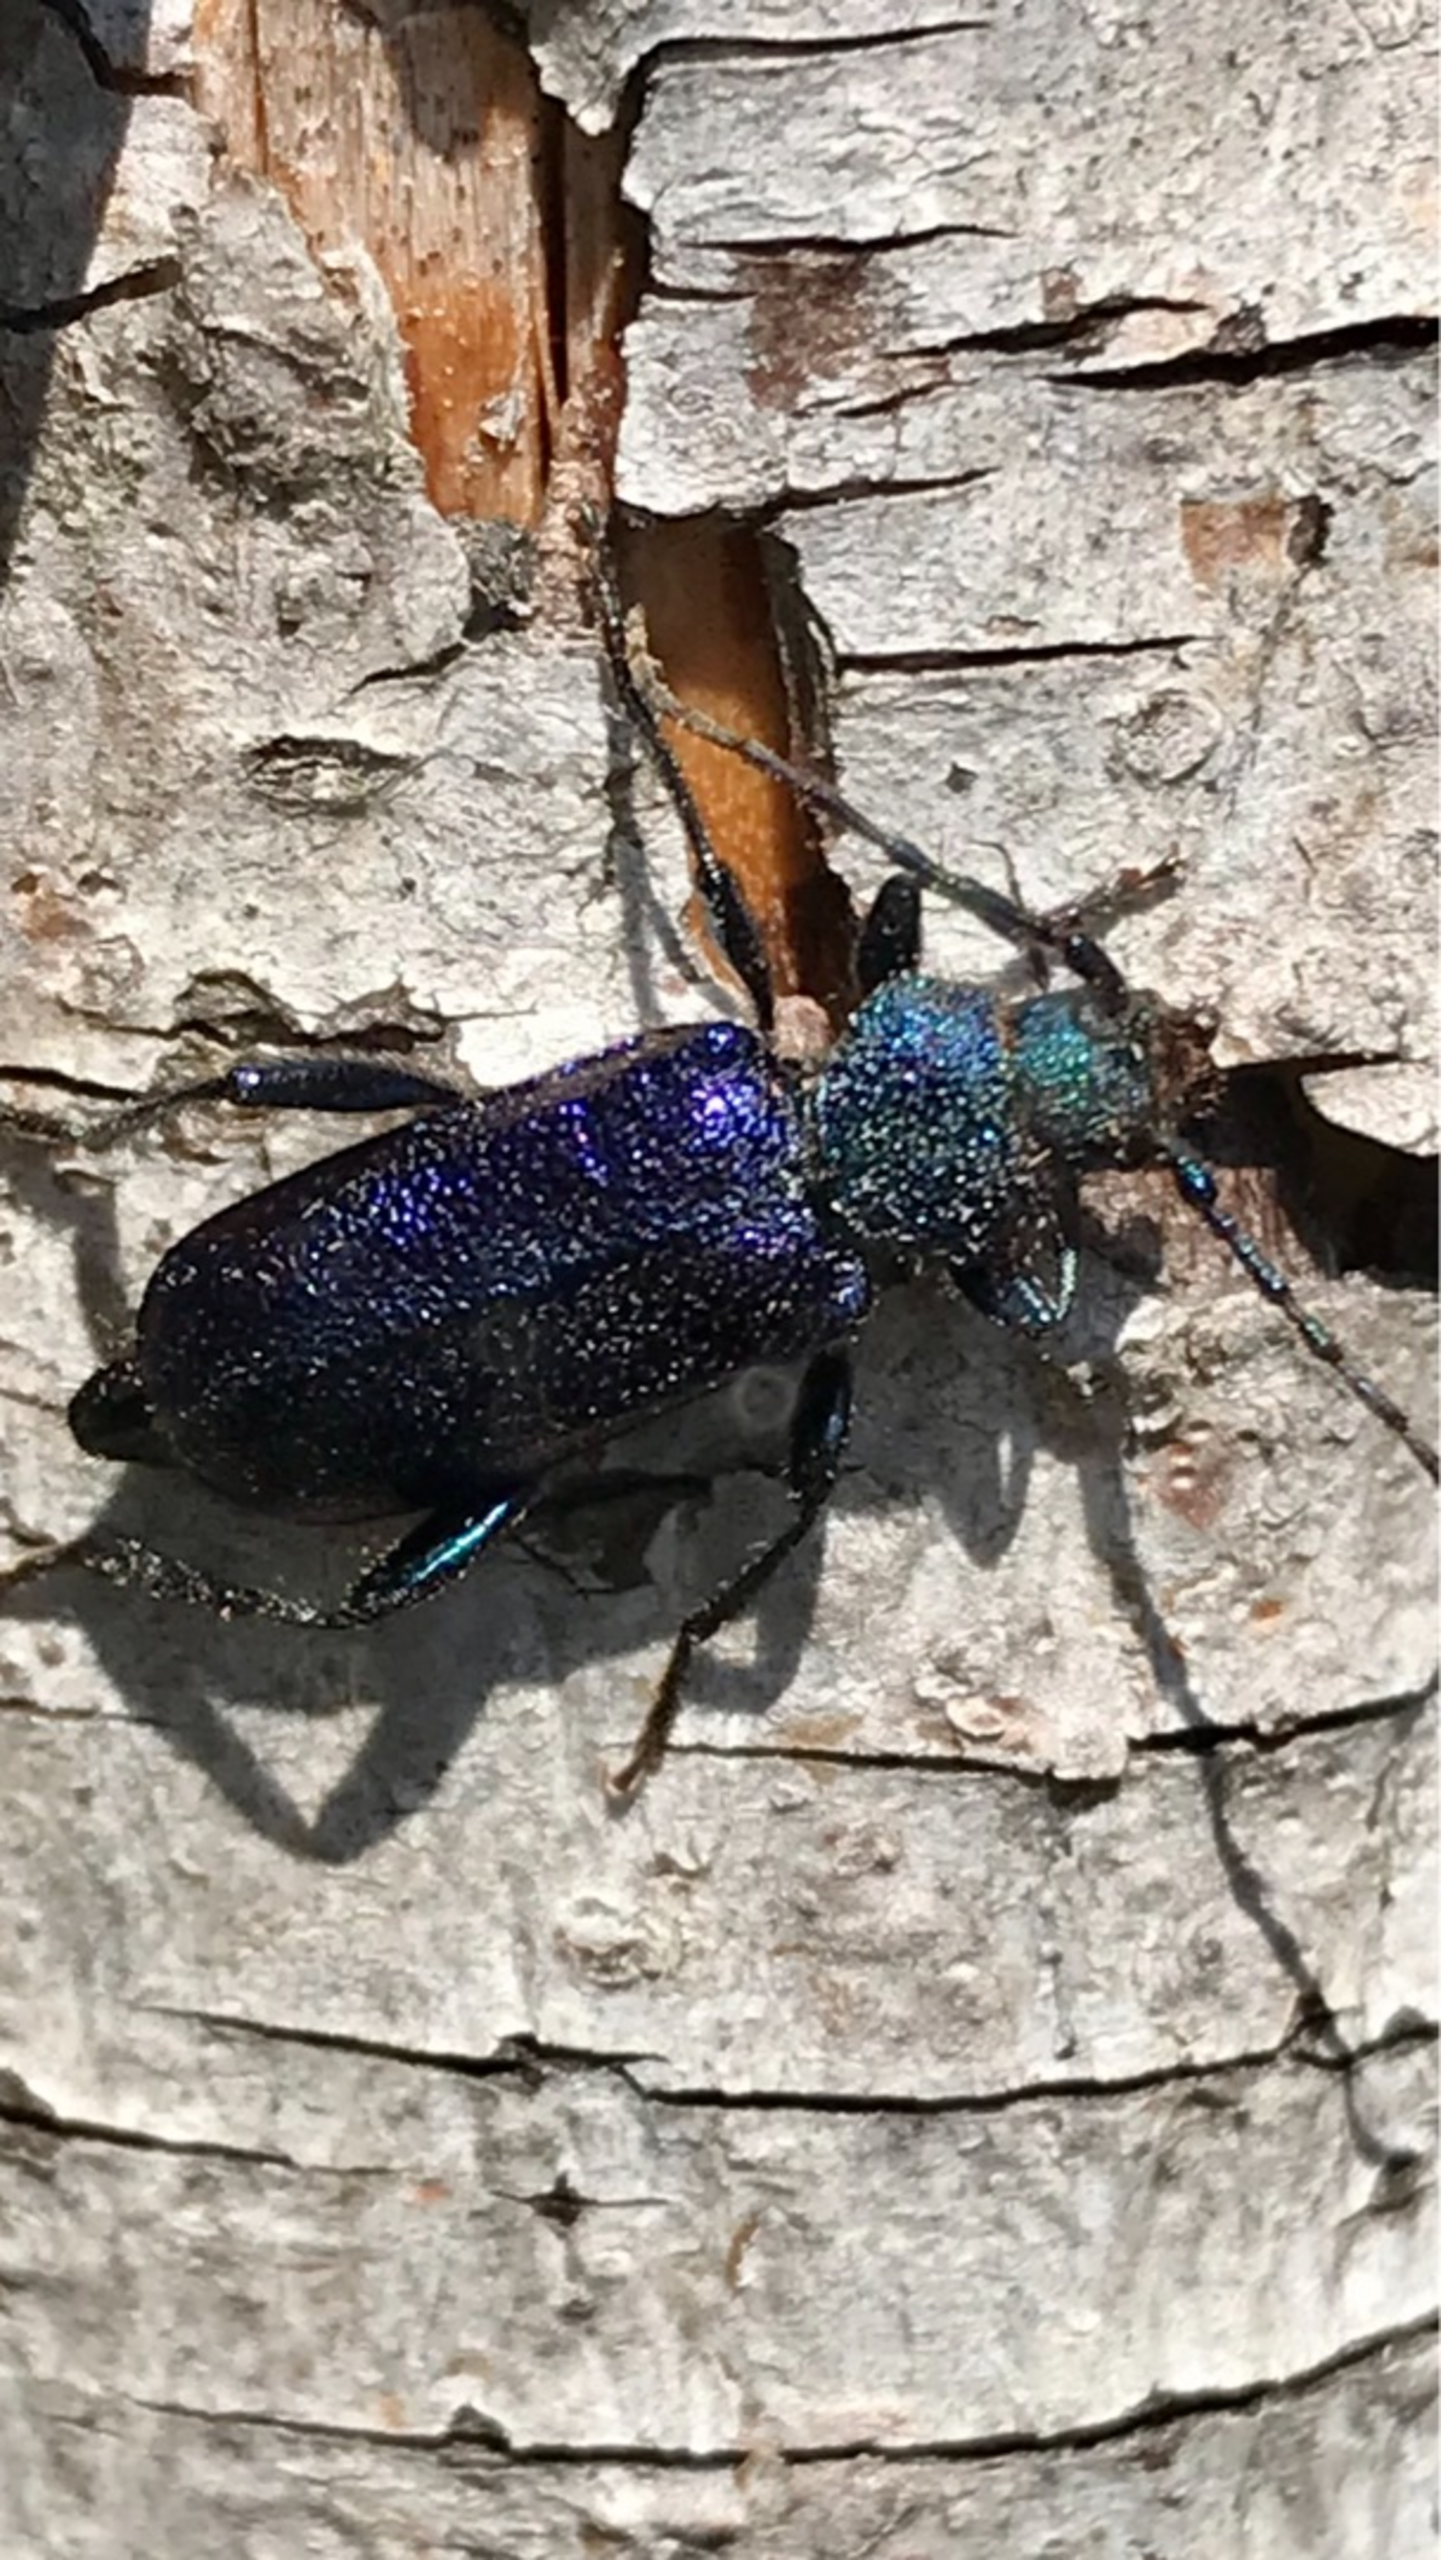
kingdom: Animalia
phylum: Arthropoda
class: Insecta
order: Coleoptera
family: Cerambycidae
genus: Agapanthia
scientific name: Agapanthia violacea
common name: Violbuk
